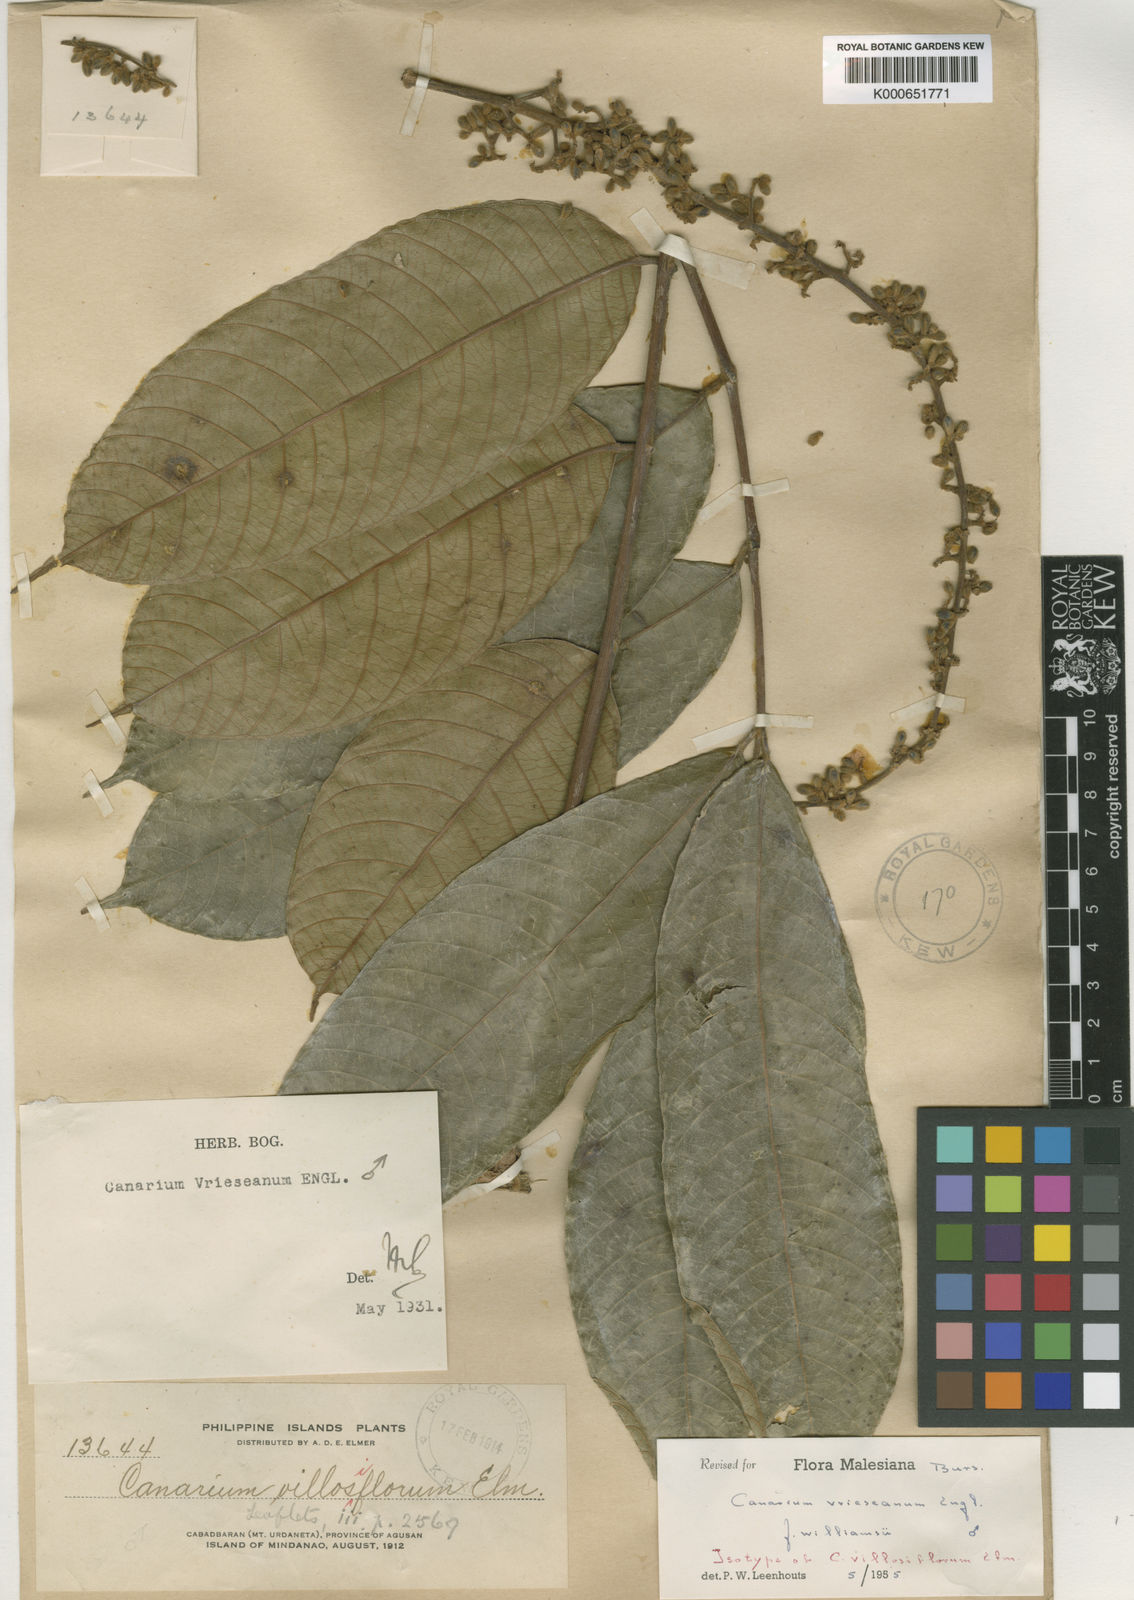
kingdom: Plantae
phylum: Tracheophyta
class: Magnoliopsida
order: Sapindales
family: Burseraceae
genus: Canarium
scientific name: Canarium vrieseanum
